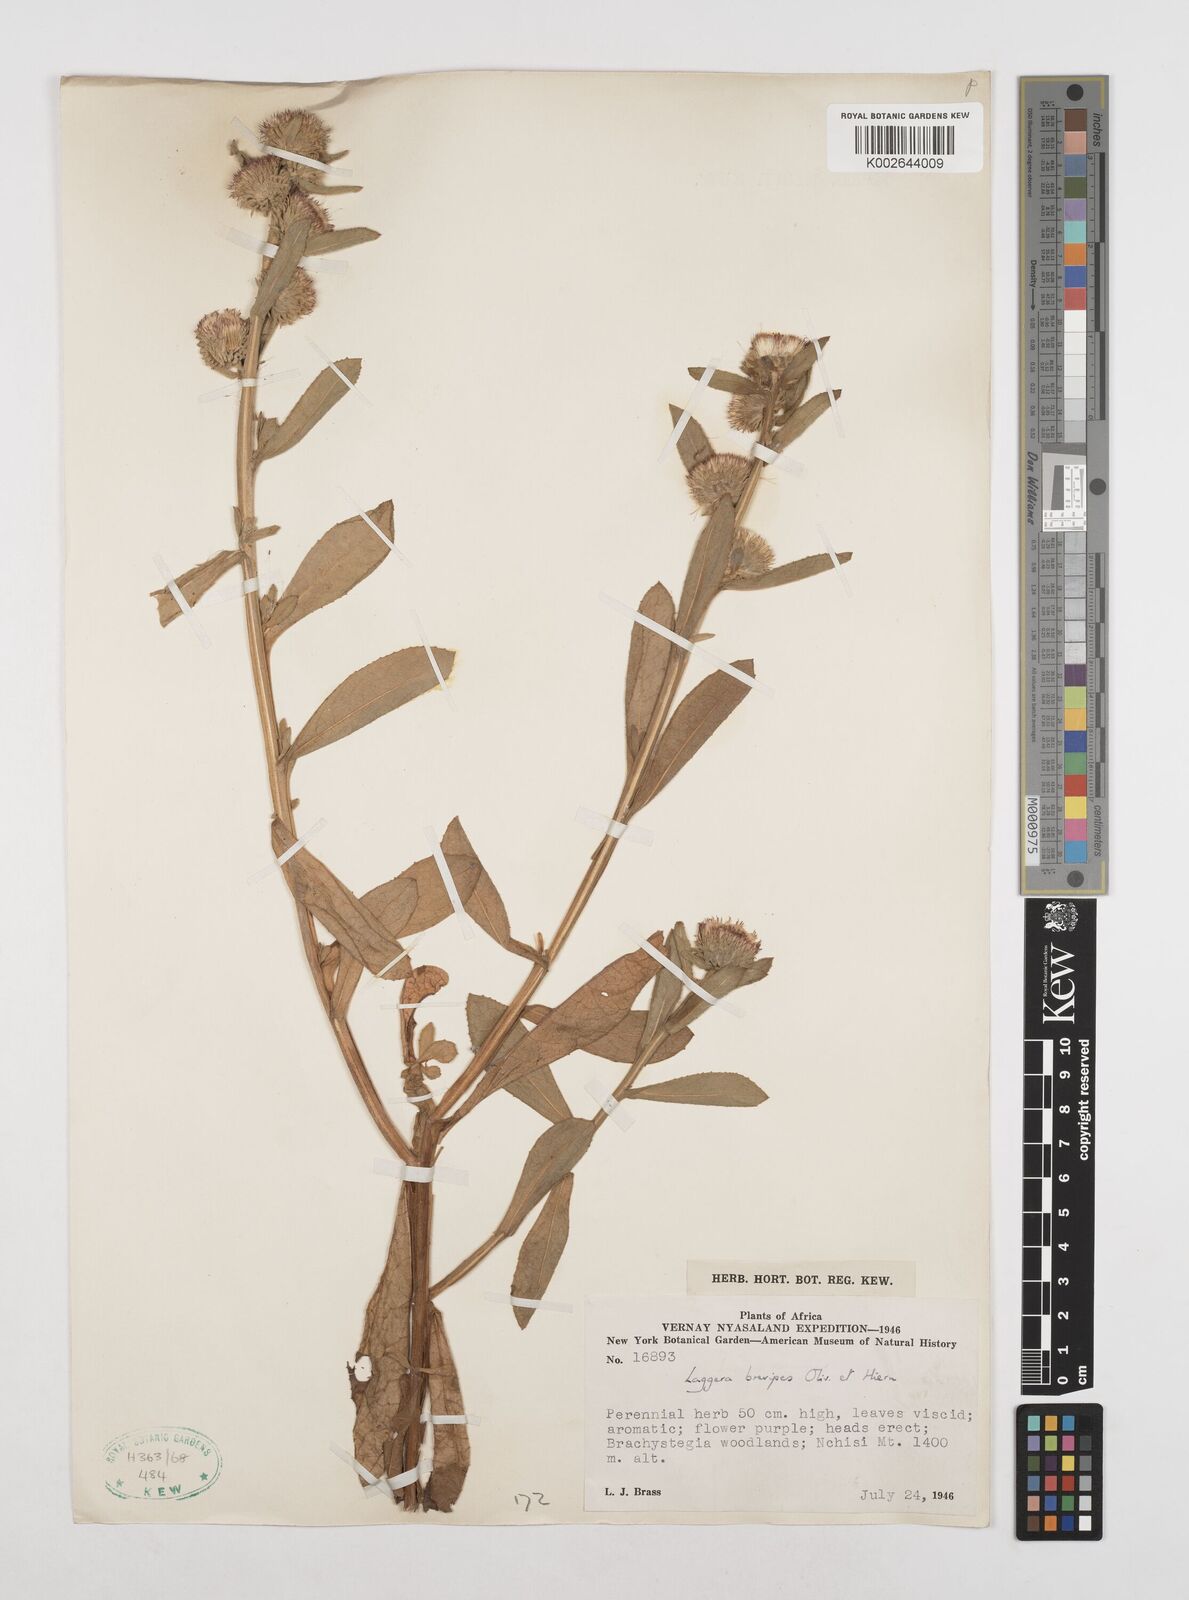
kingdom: Plantae
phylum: Tracheophyta
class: Magnoliopsida
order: Asterales
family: Asteraceae
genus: Laggera
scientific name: Laggera brevipes
